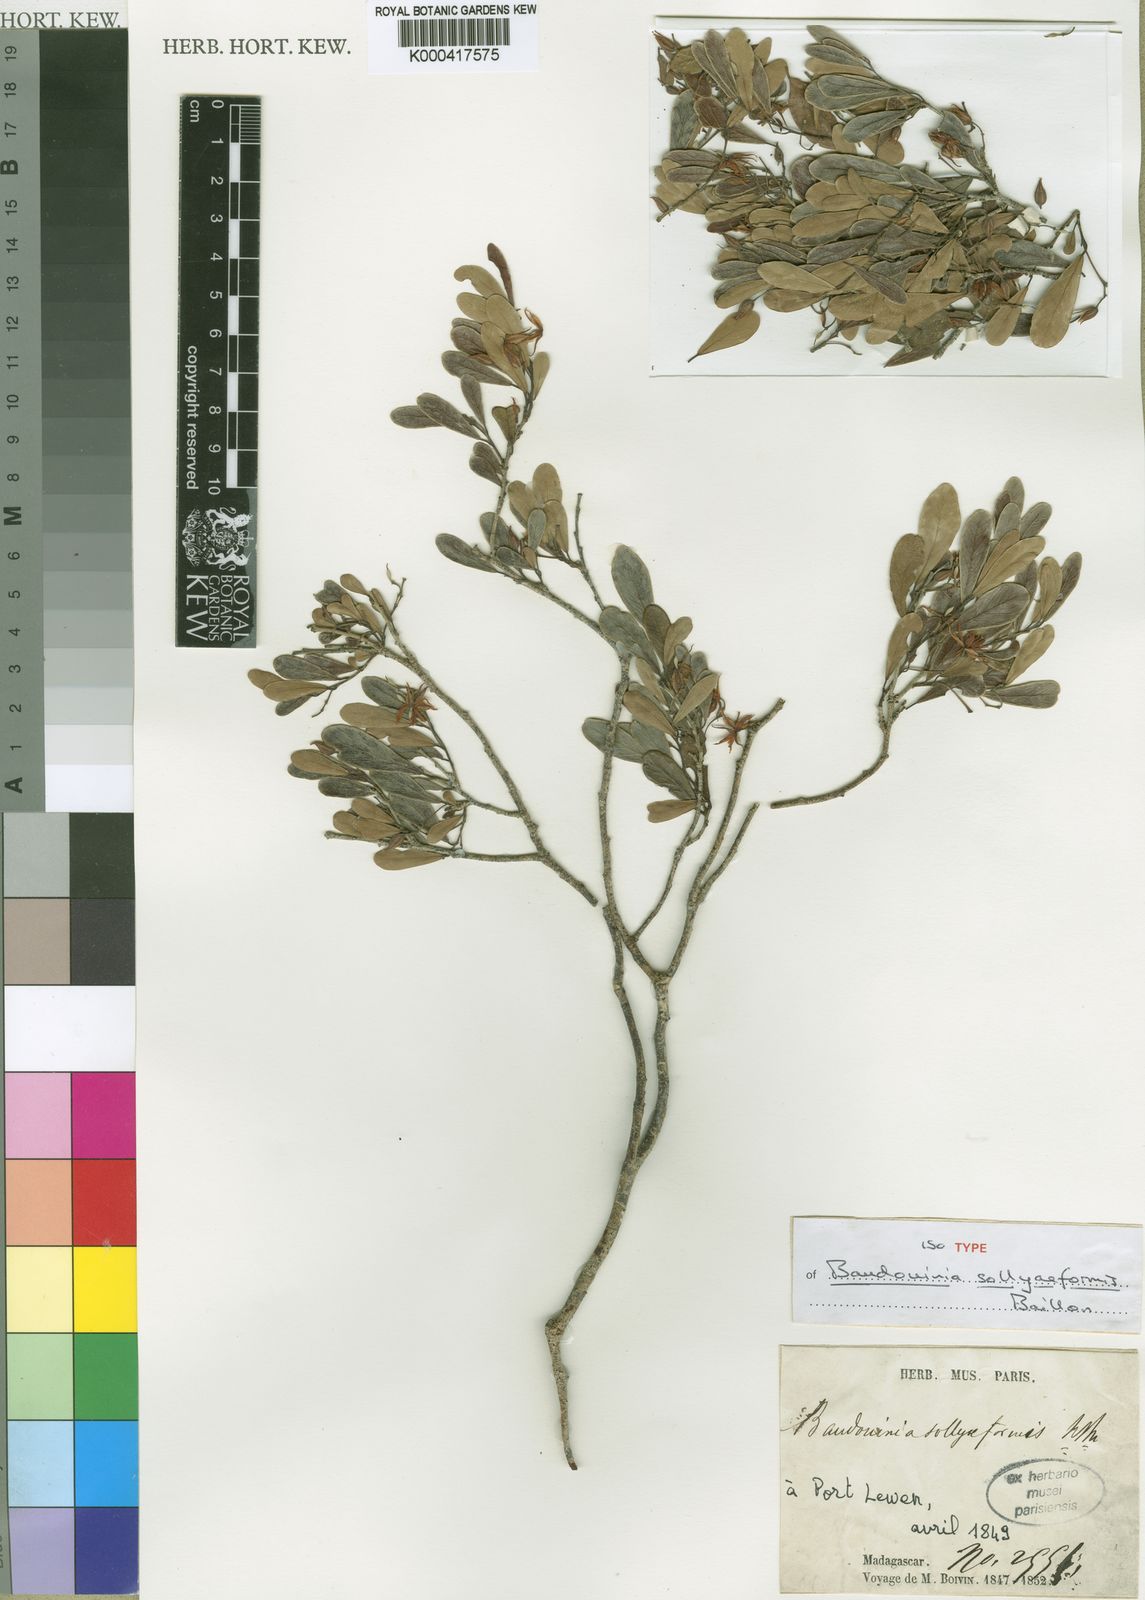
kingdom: Plantae
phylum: Tracheophyta
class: Magnoliopsida
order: Fabales
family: Fabaceae
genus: Baudouinia
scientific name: Baudouinia sollyiformis
